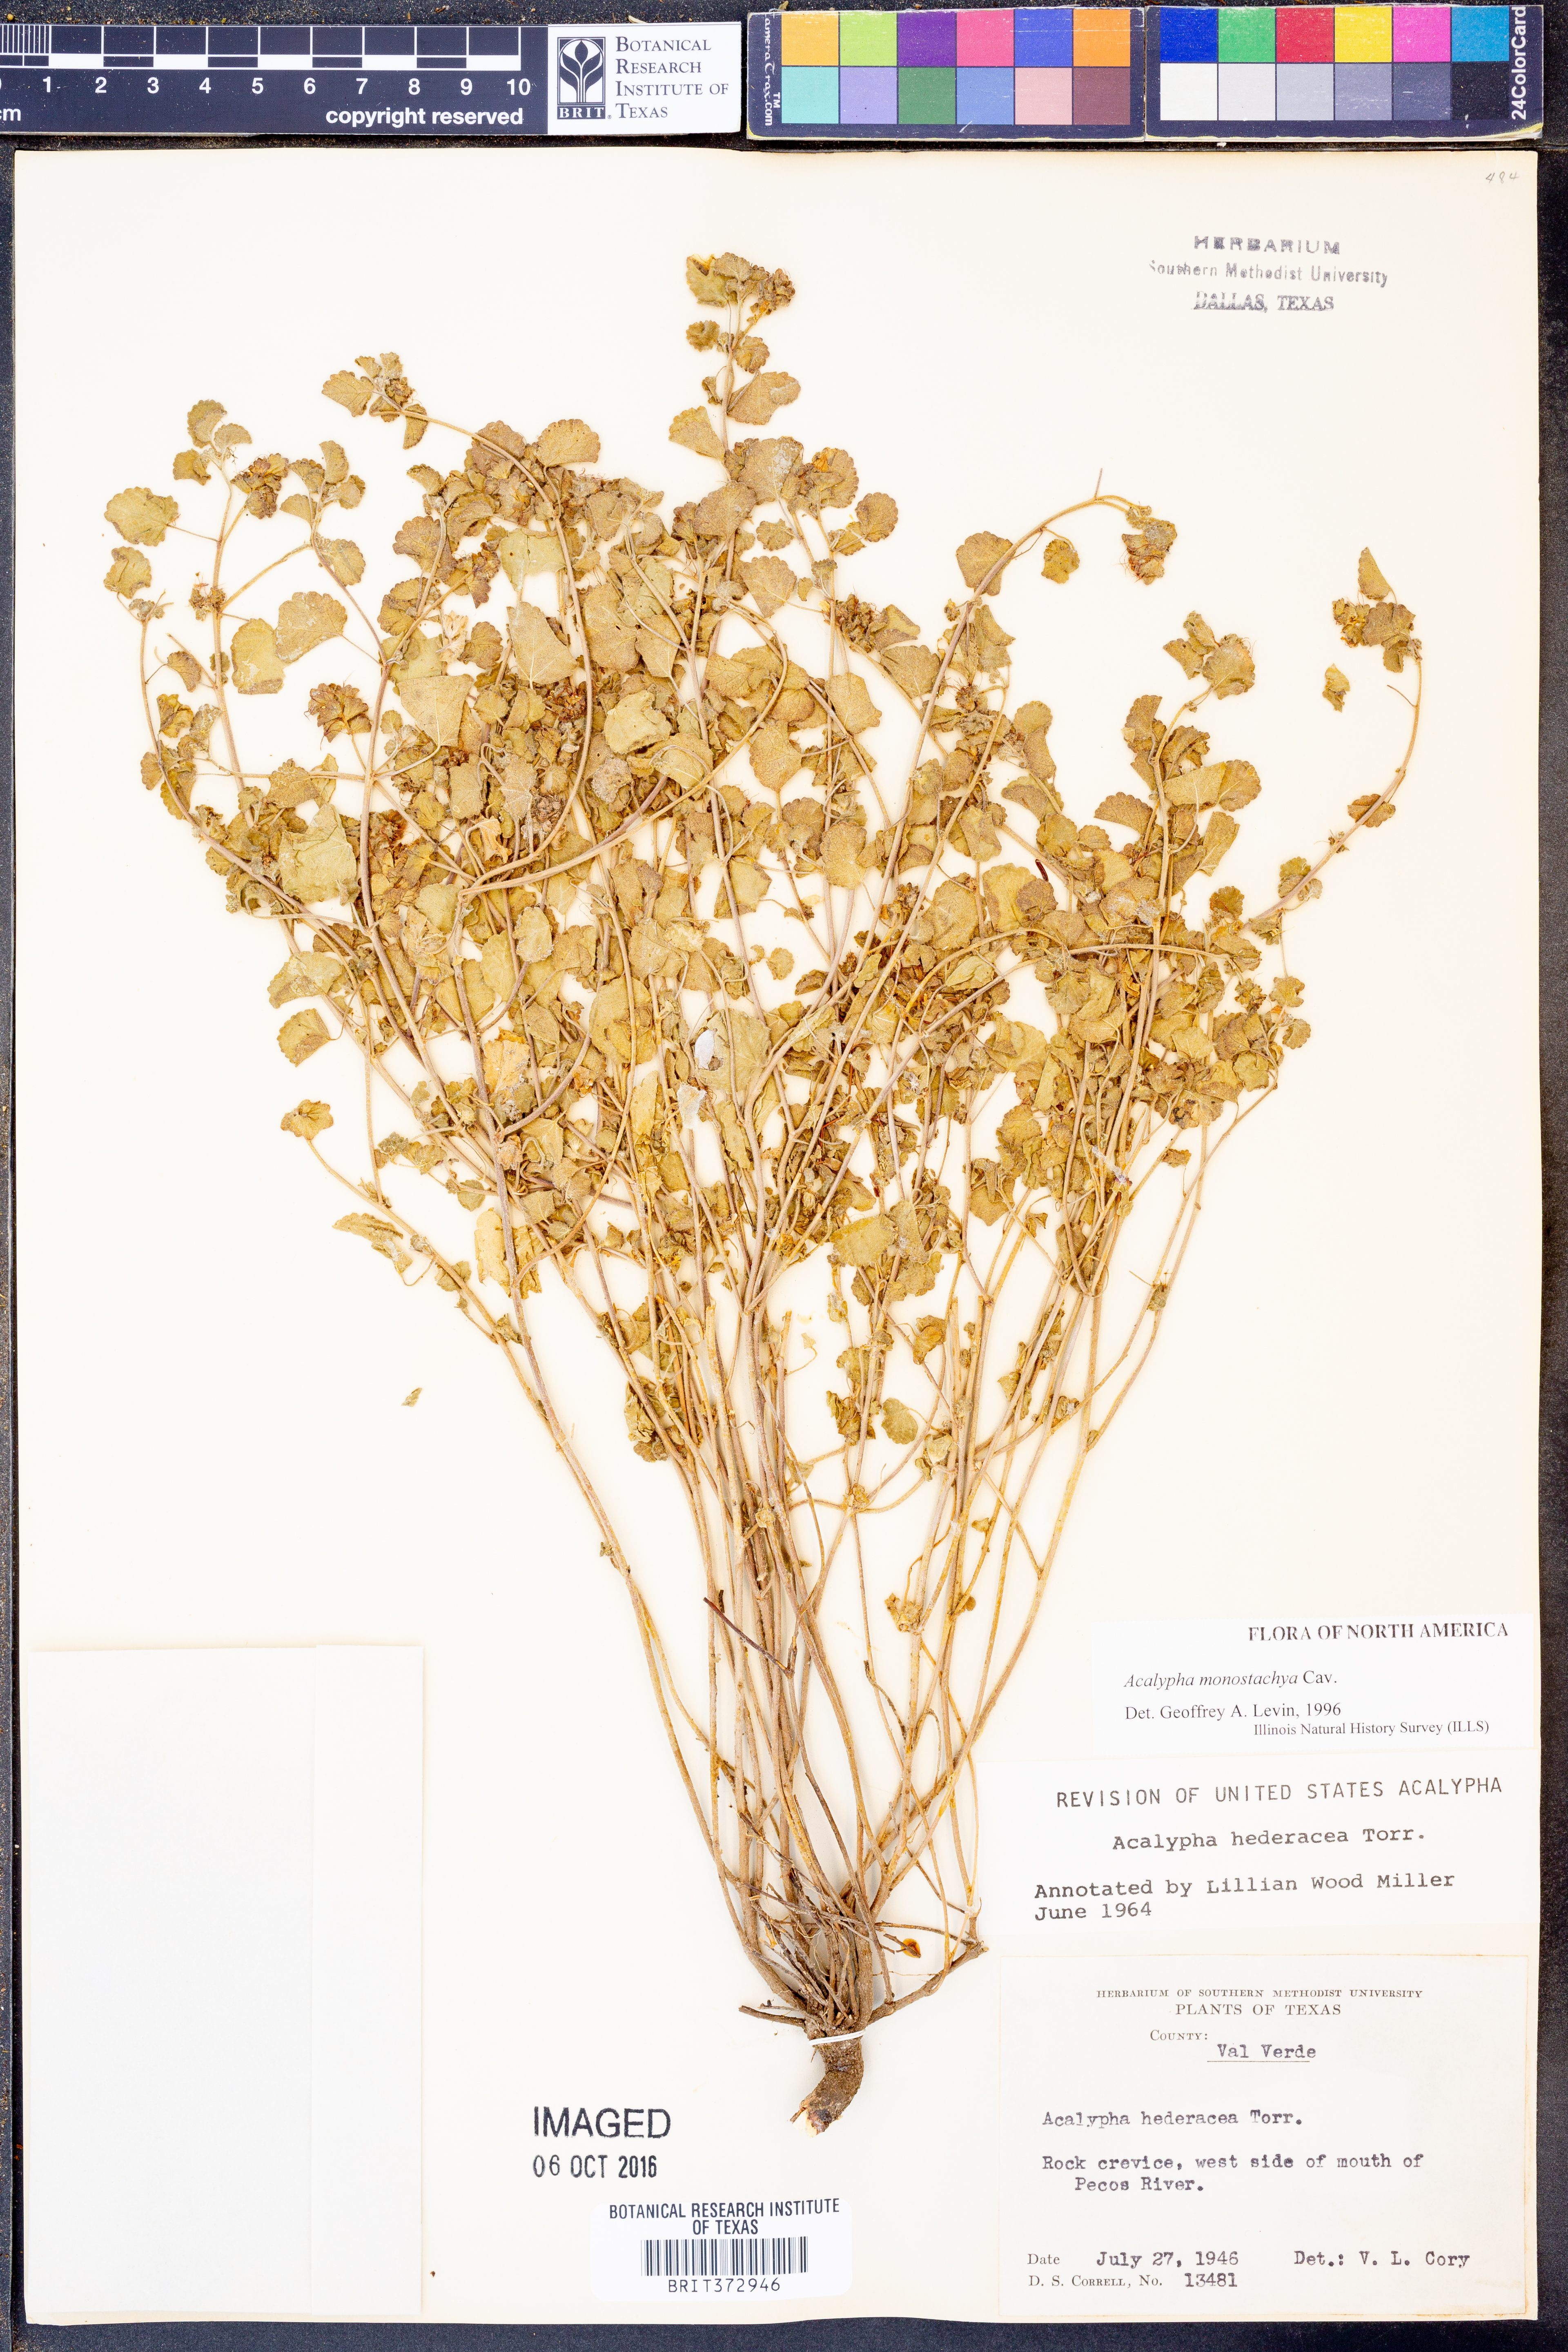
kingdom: Plantae
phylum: Tracheophyta
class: Magnoliopsida
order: Malpighiales
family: Euphorbiaceae
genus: Acalypha
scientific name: Acalypha monostachya
